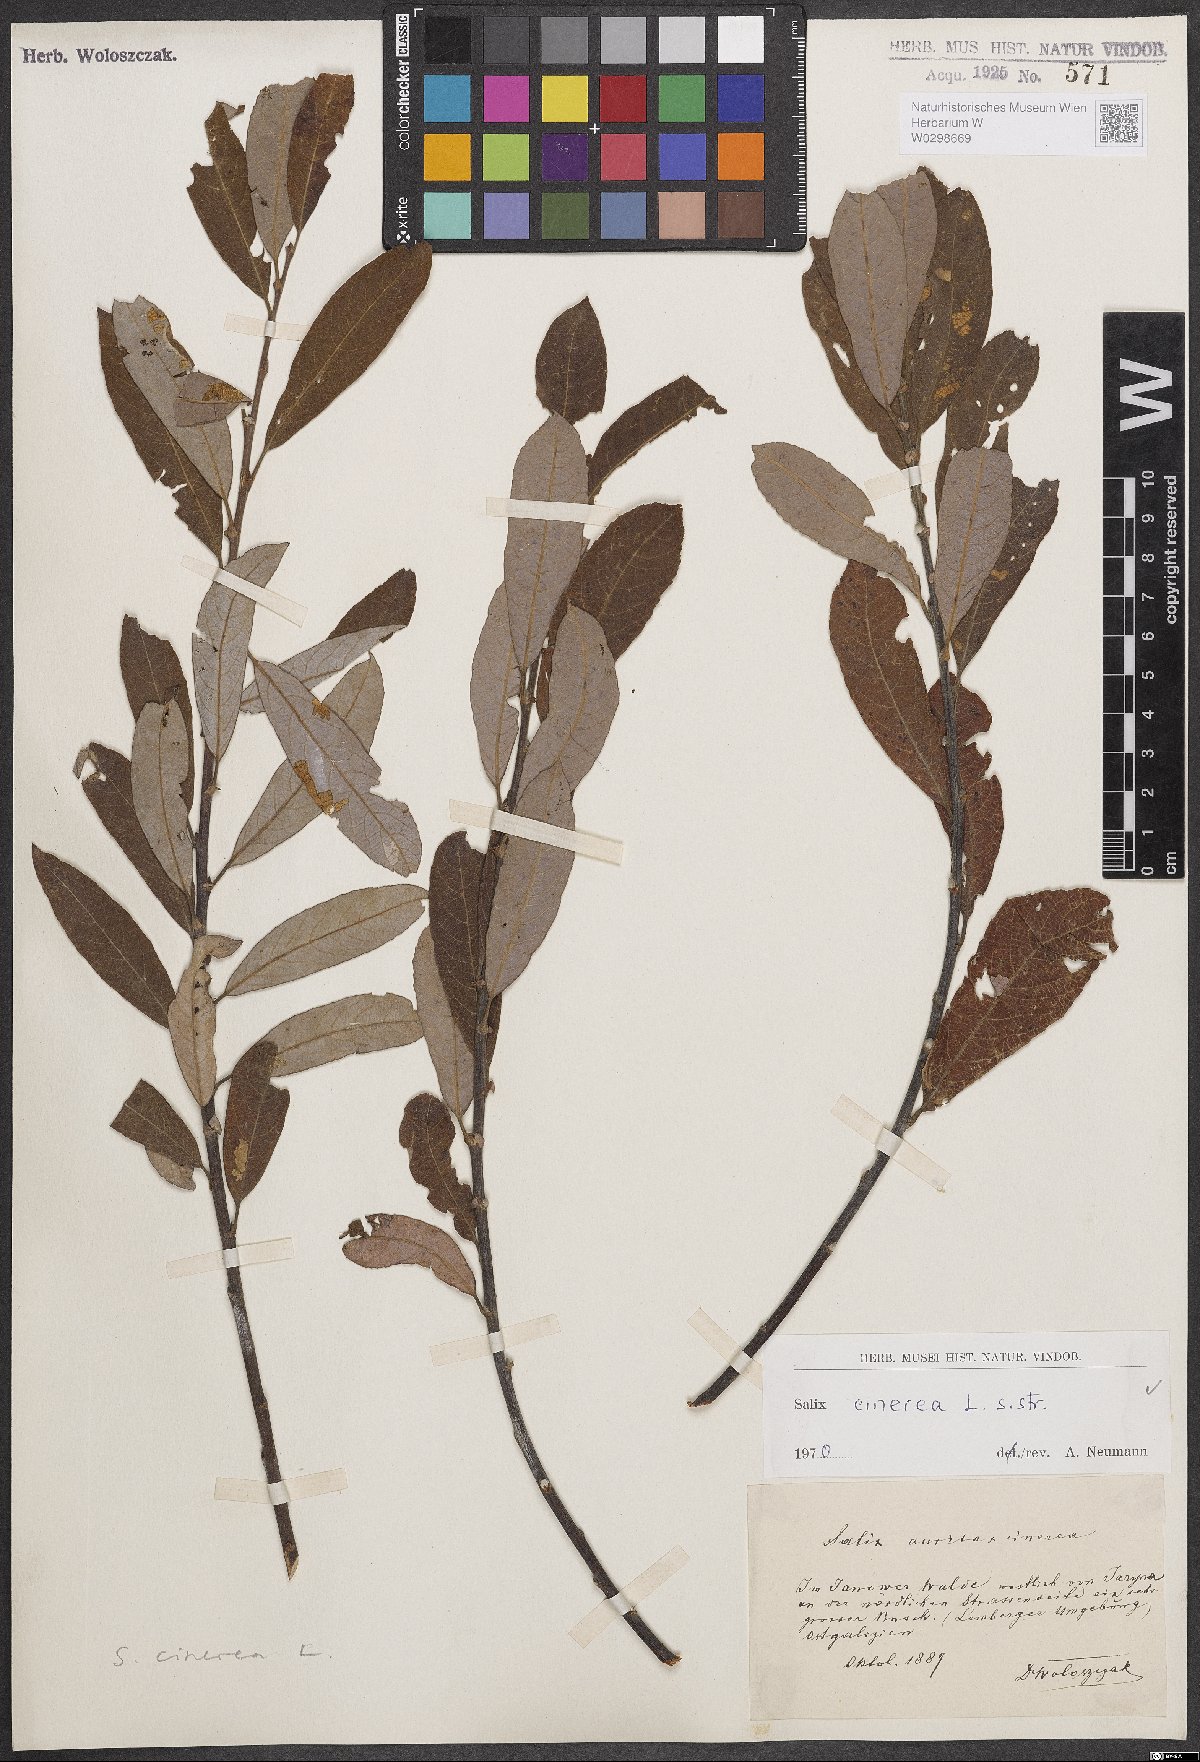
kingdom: Plantae
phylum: Tracheophyta
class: Magnoliopsida
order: Malpighiales
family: Salicaceae
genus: Salix
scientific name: Salix cinerea
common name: Common sallow
